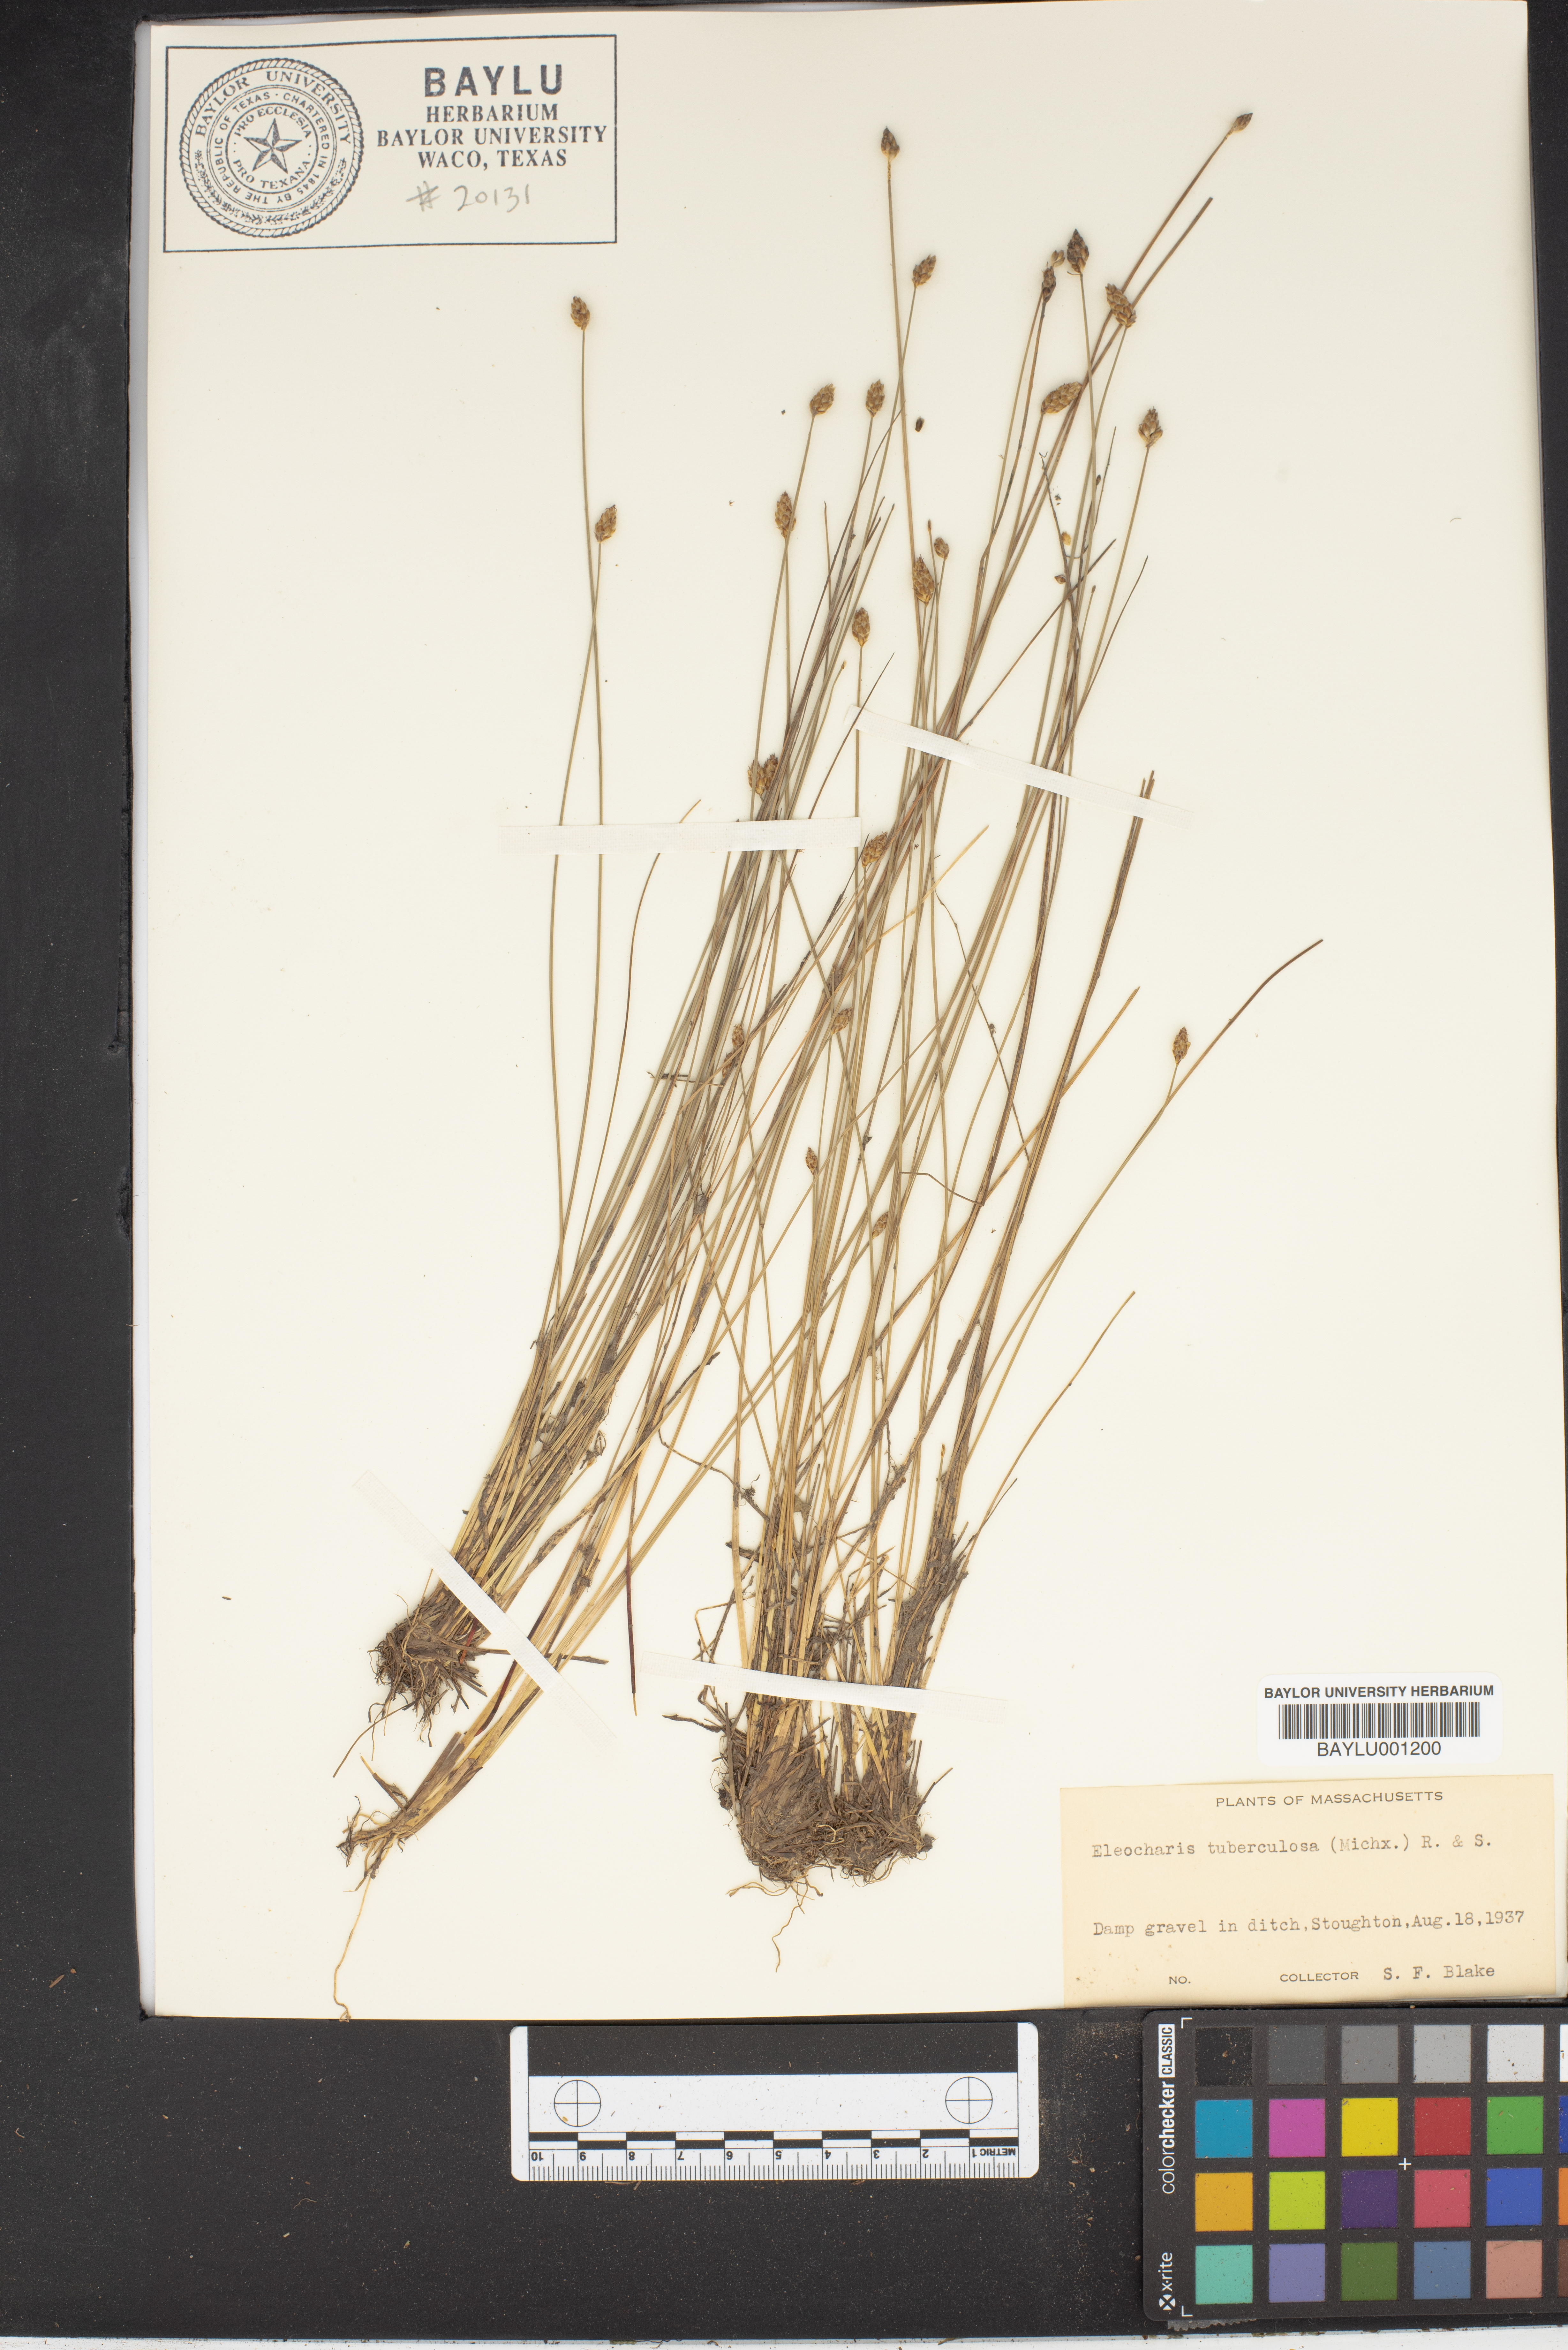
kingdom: Plantae
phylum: Tracheophyta
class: Liliopsida
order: Poales
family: Cyperaceae
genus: Eleocharis
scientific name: Eleocharis tuberculosa
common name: Cone-cup spikerush
